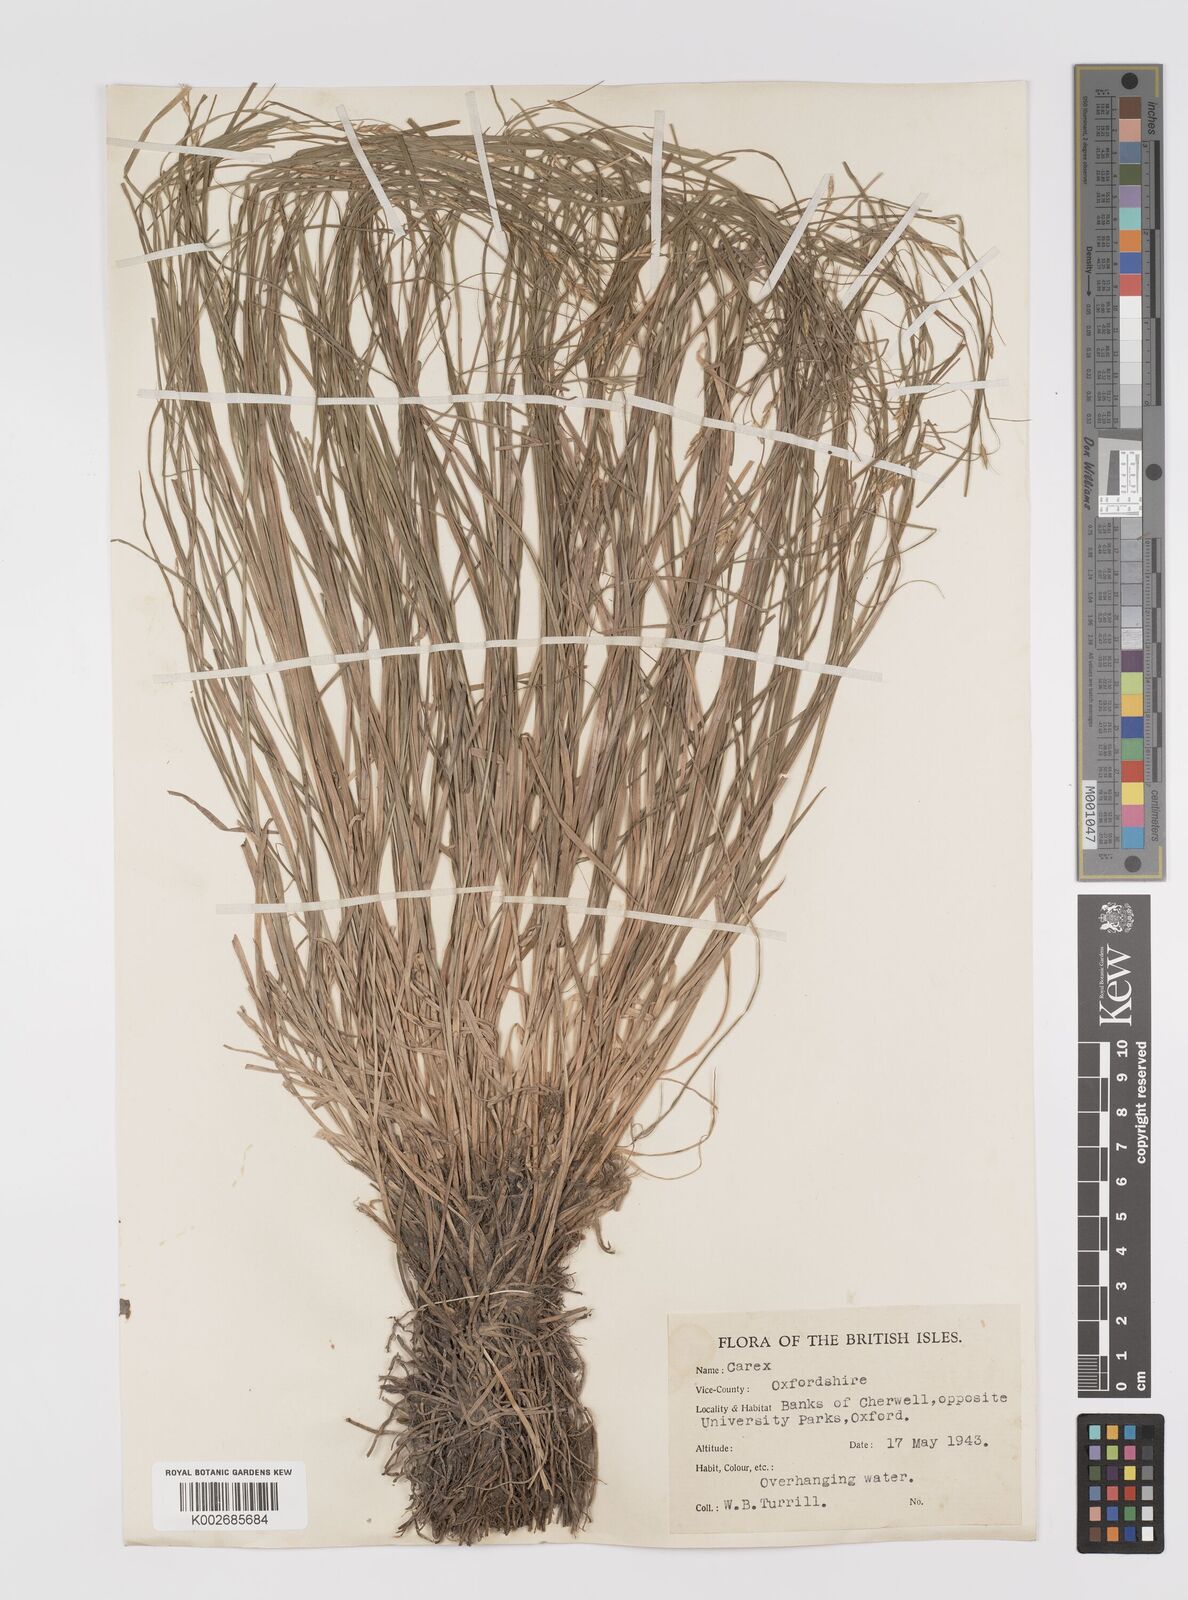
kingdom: Plantae
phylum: Tracheophyta
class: Liliopsida
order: Poales
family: Cyperaceae
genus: Carex
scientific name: Carex remota
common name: Remote sedge
